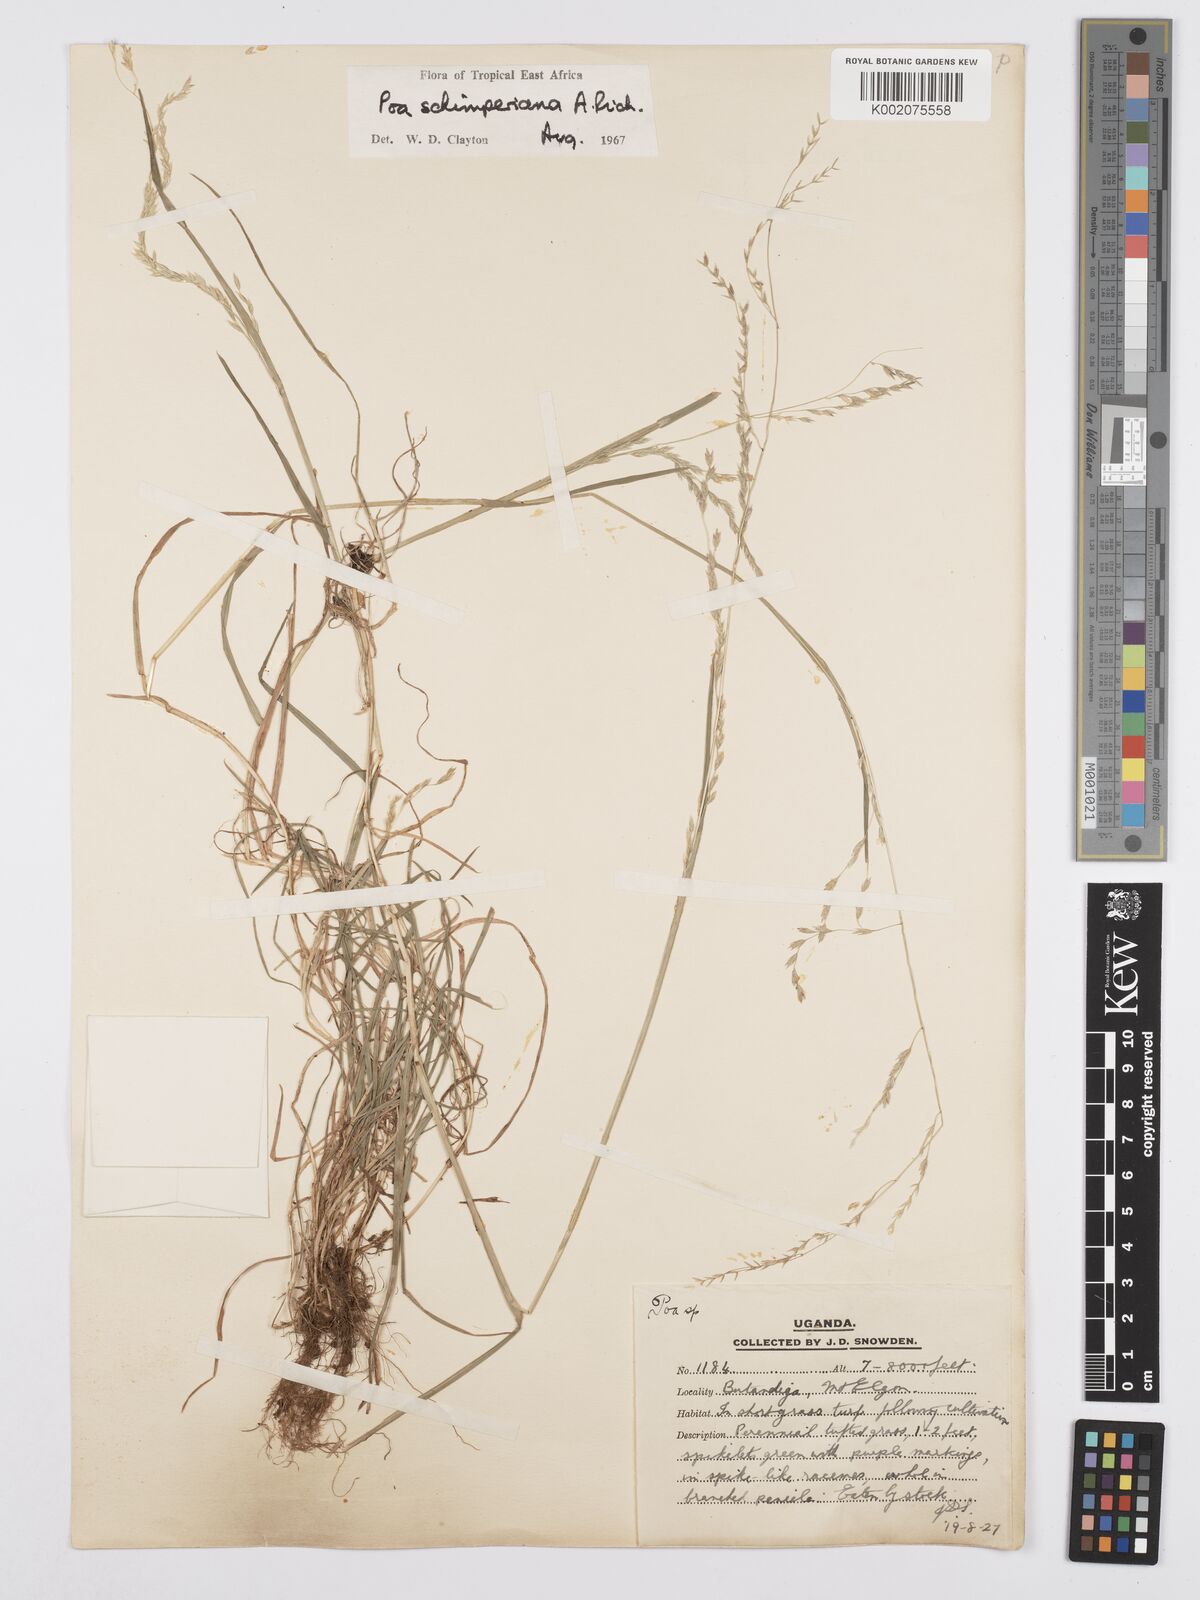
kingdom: Plantae
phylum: Tracheophyta
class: Liliopsida
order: Poales
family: Poaceae
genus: Poa
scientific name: Poa schimperiana
